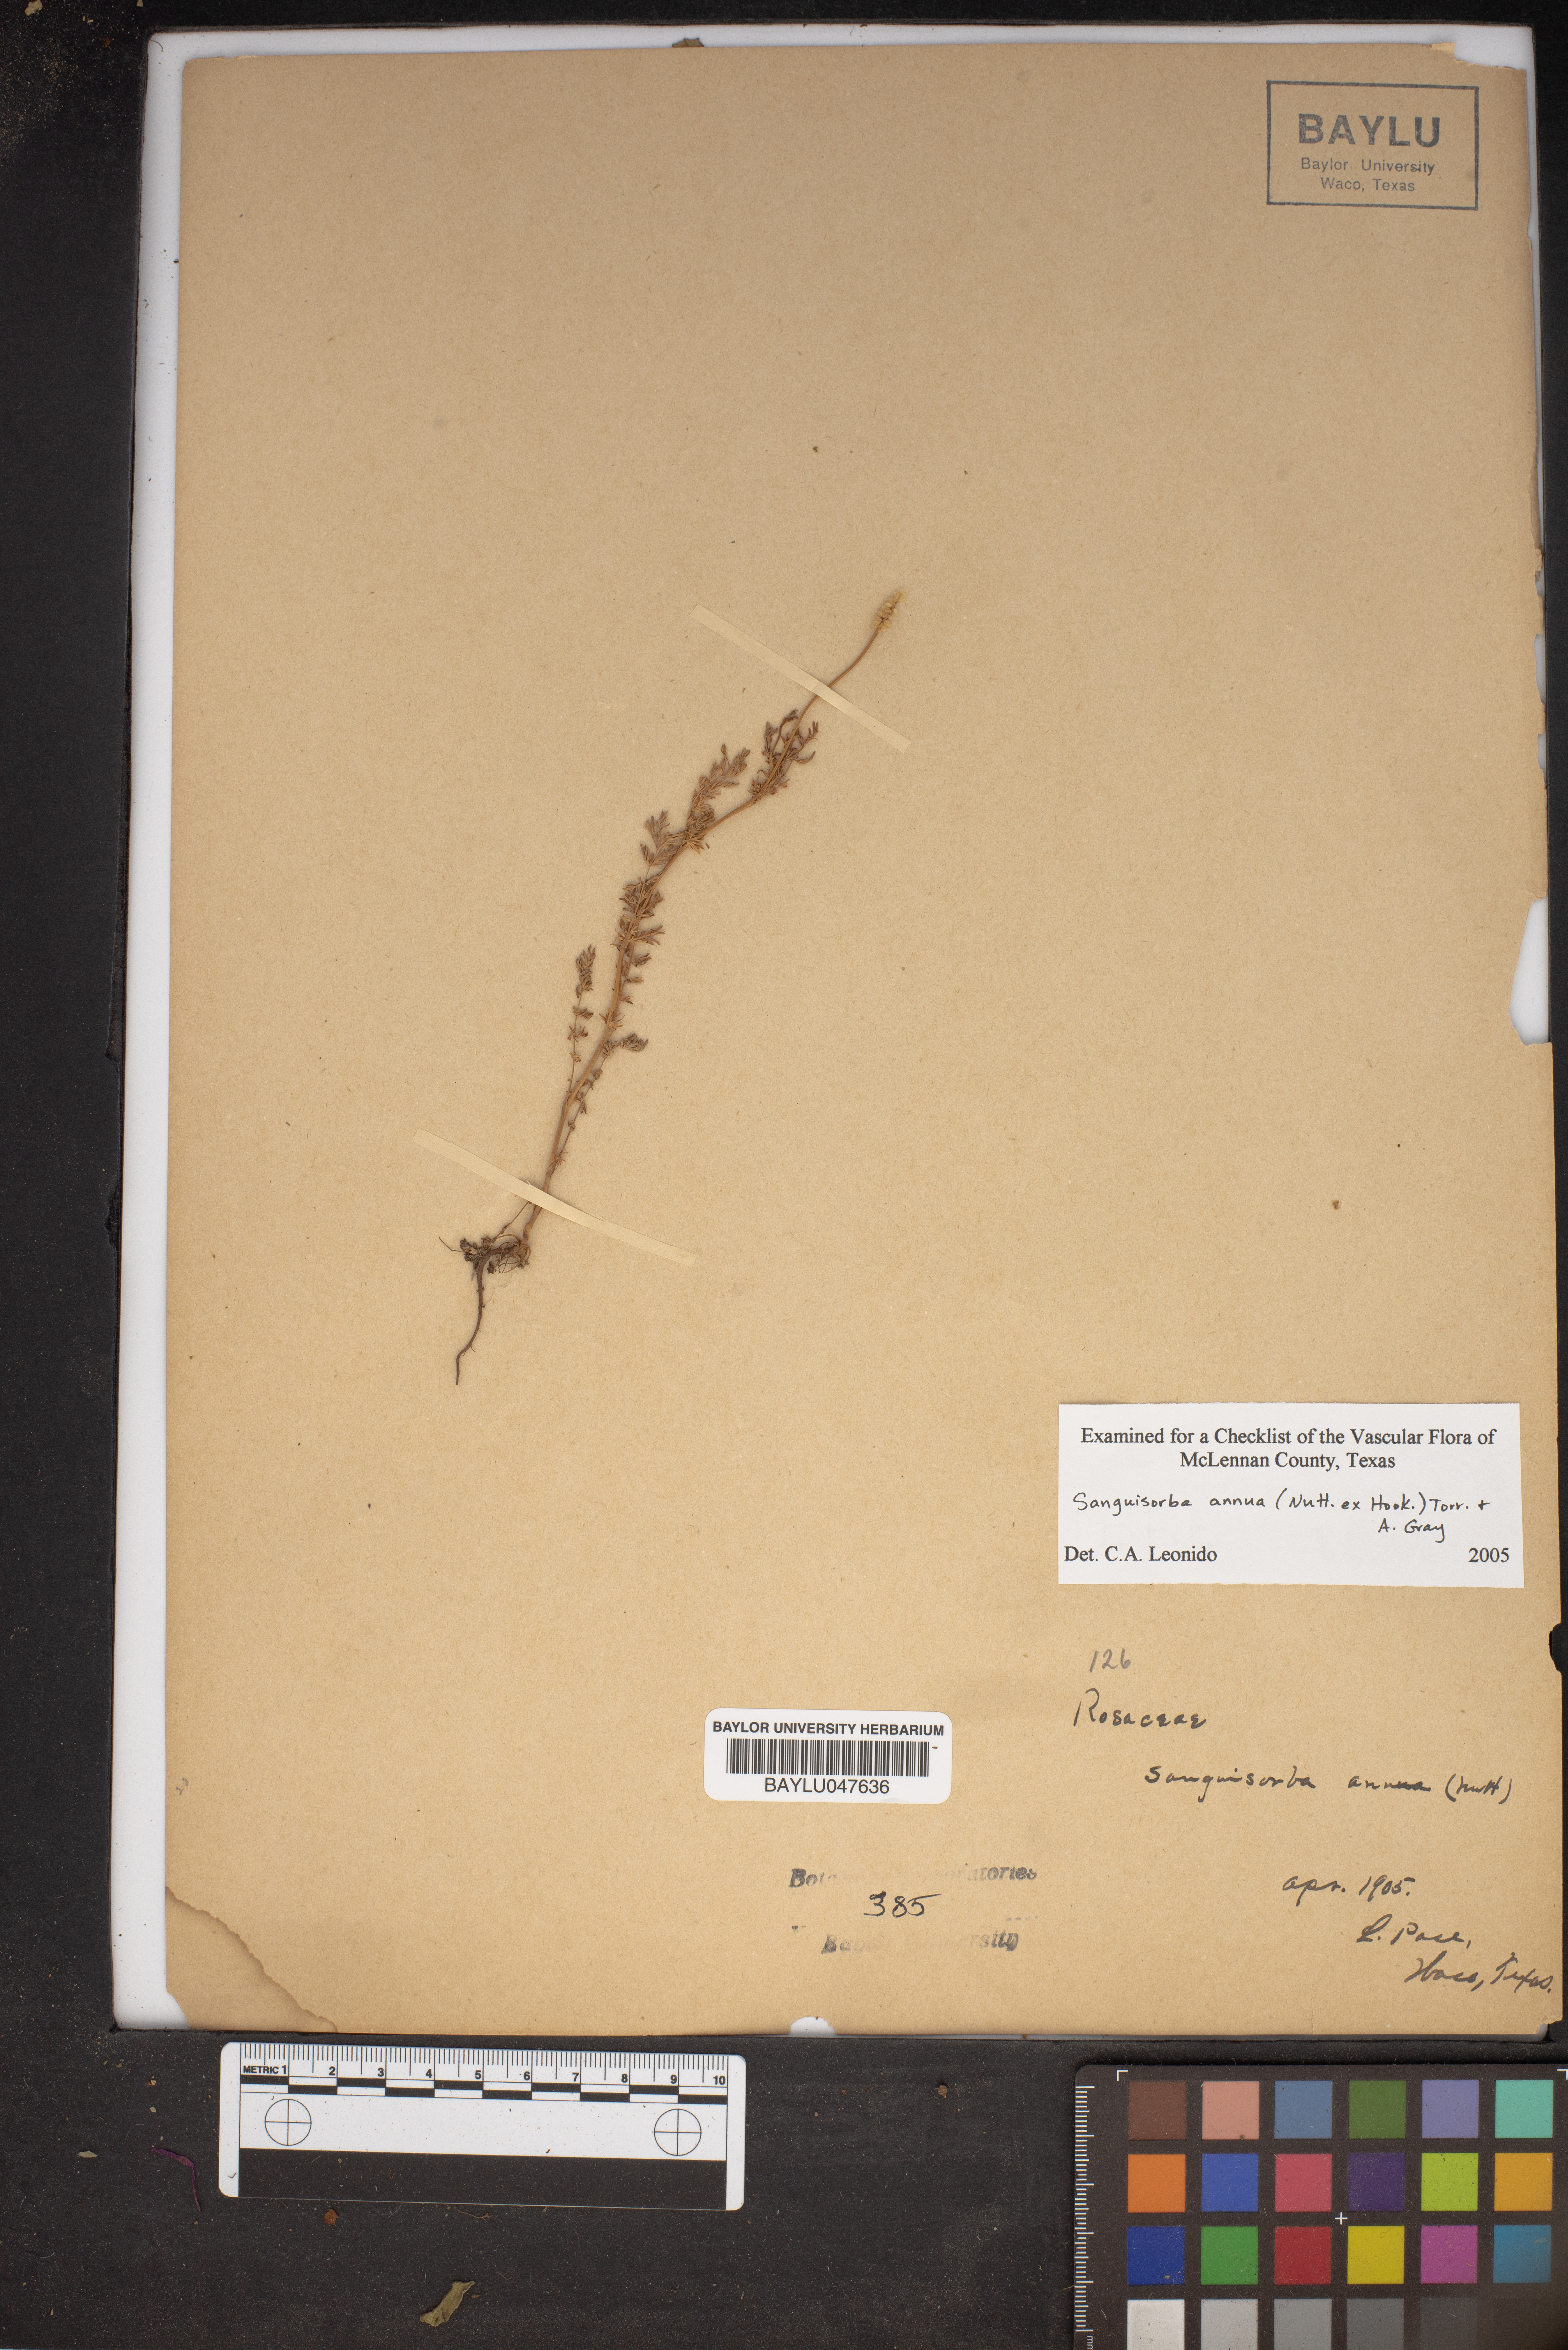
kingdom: Plantae
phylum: Tracheophyta
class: Magnoliopsida
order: Rosales
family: Rosaceae
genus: Poteridium
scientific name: Poteridium annuum
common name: Annual burnet
